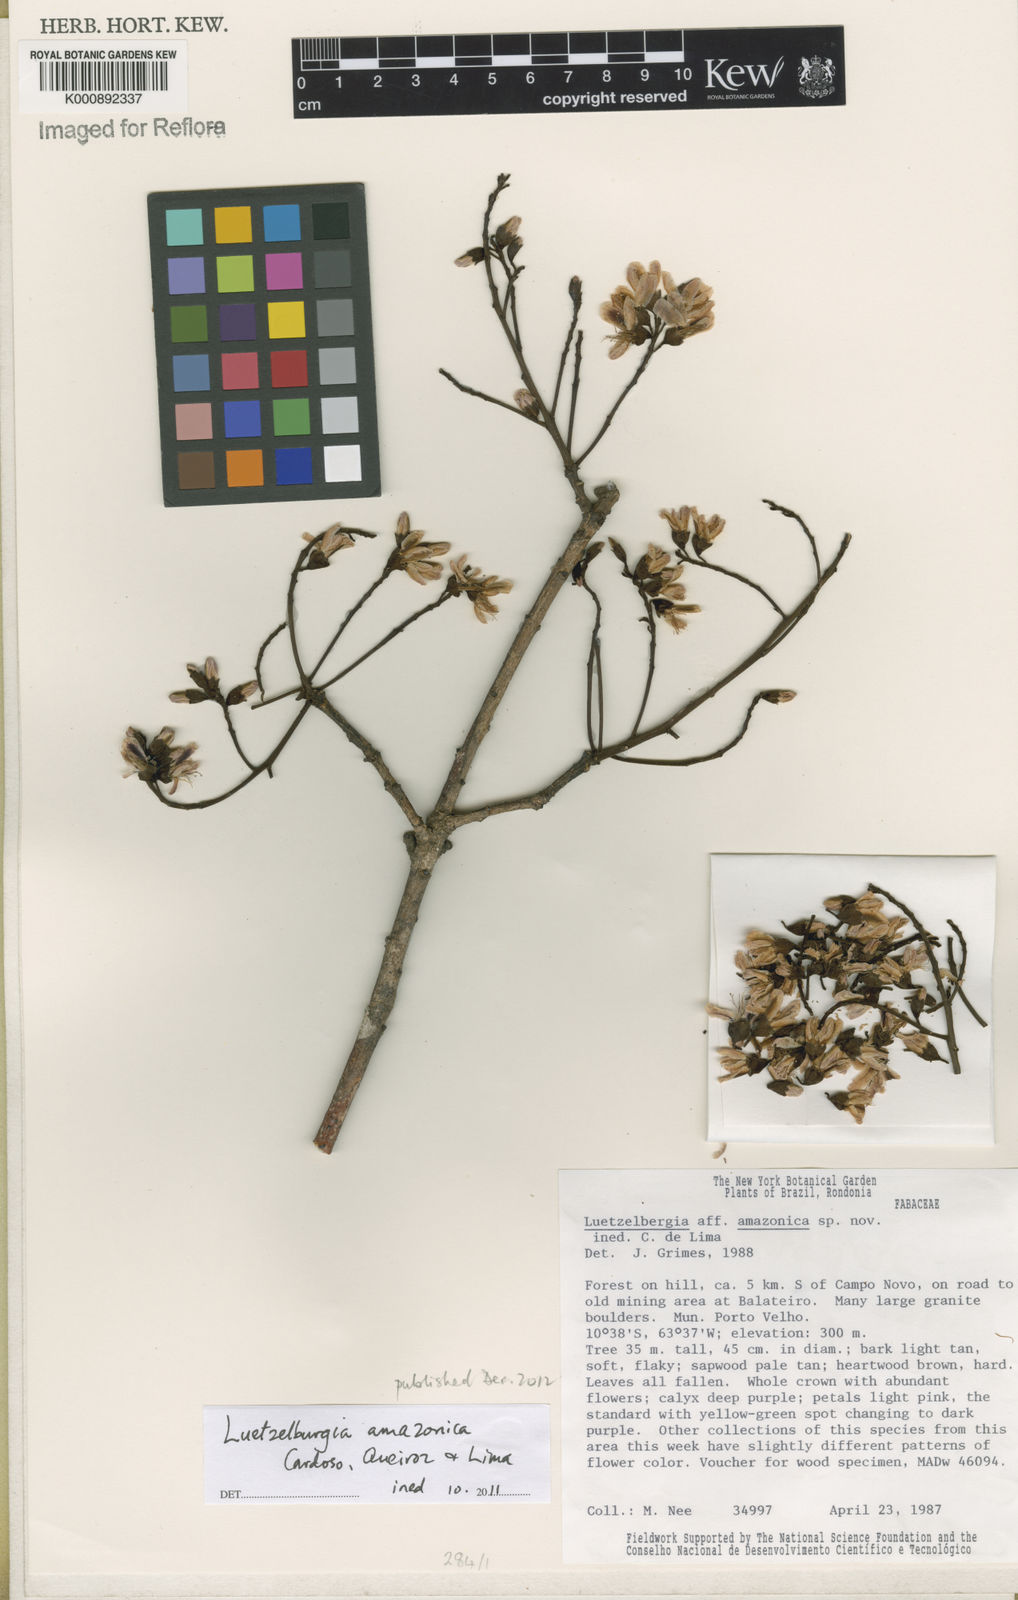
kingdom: Plantae
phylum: Tracheophyta
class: Magnoliopsida
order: Fabales
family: Fabaceae
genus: Luetzelburgia
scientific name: Luetzelburgia amazonica
